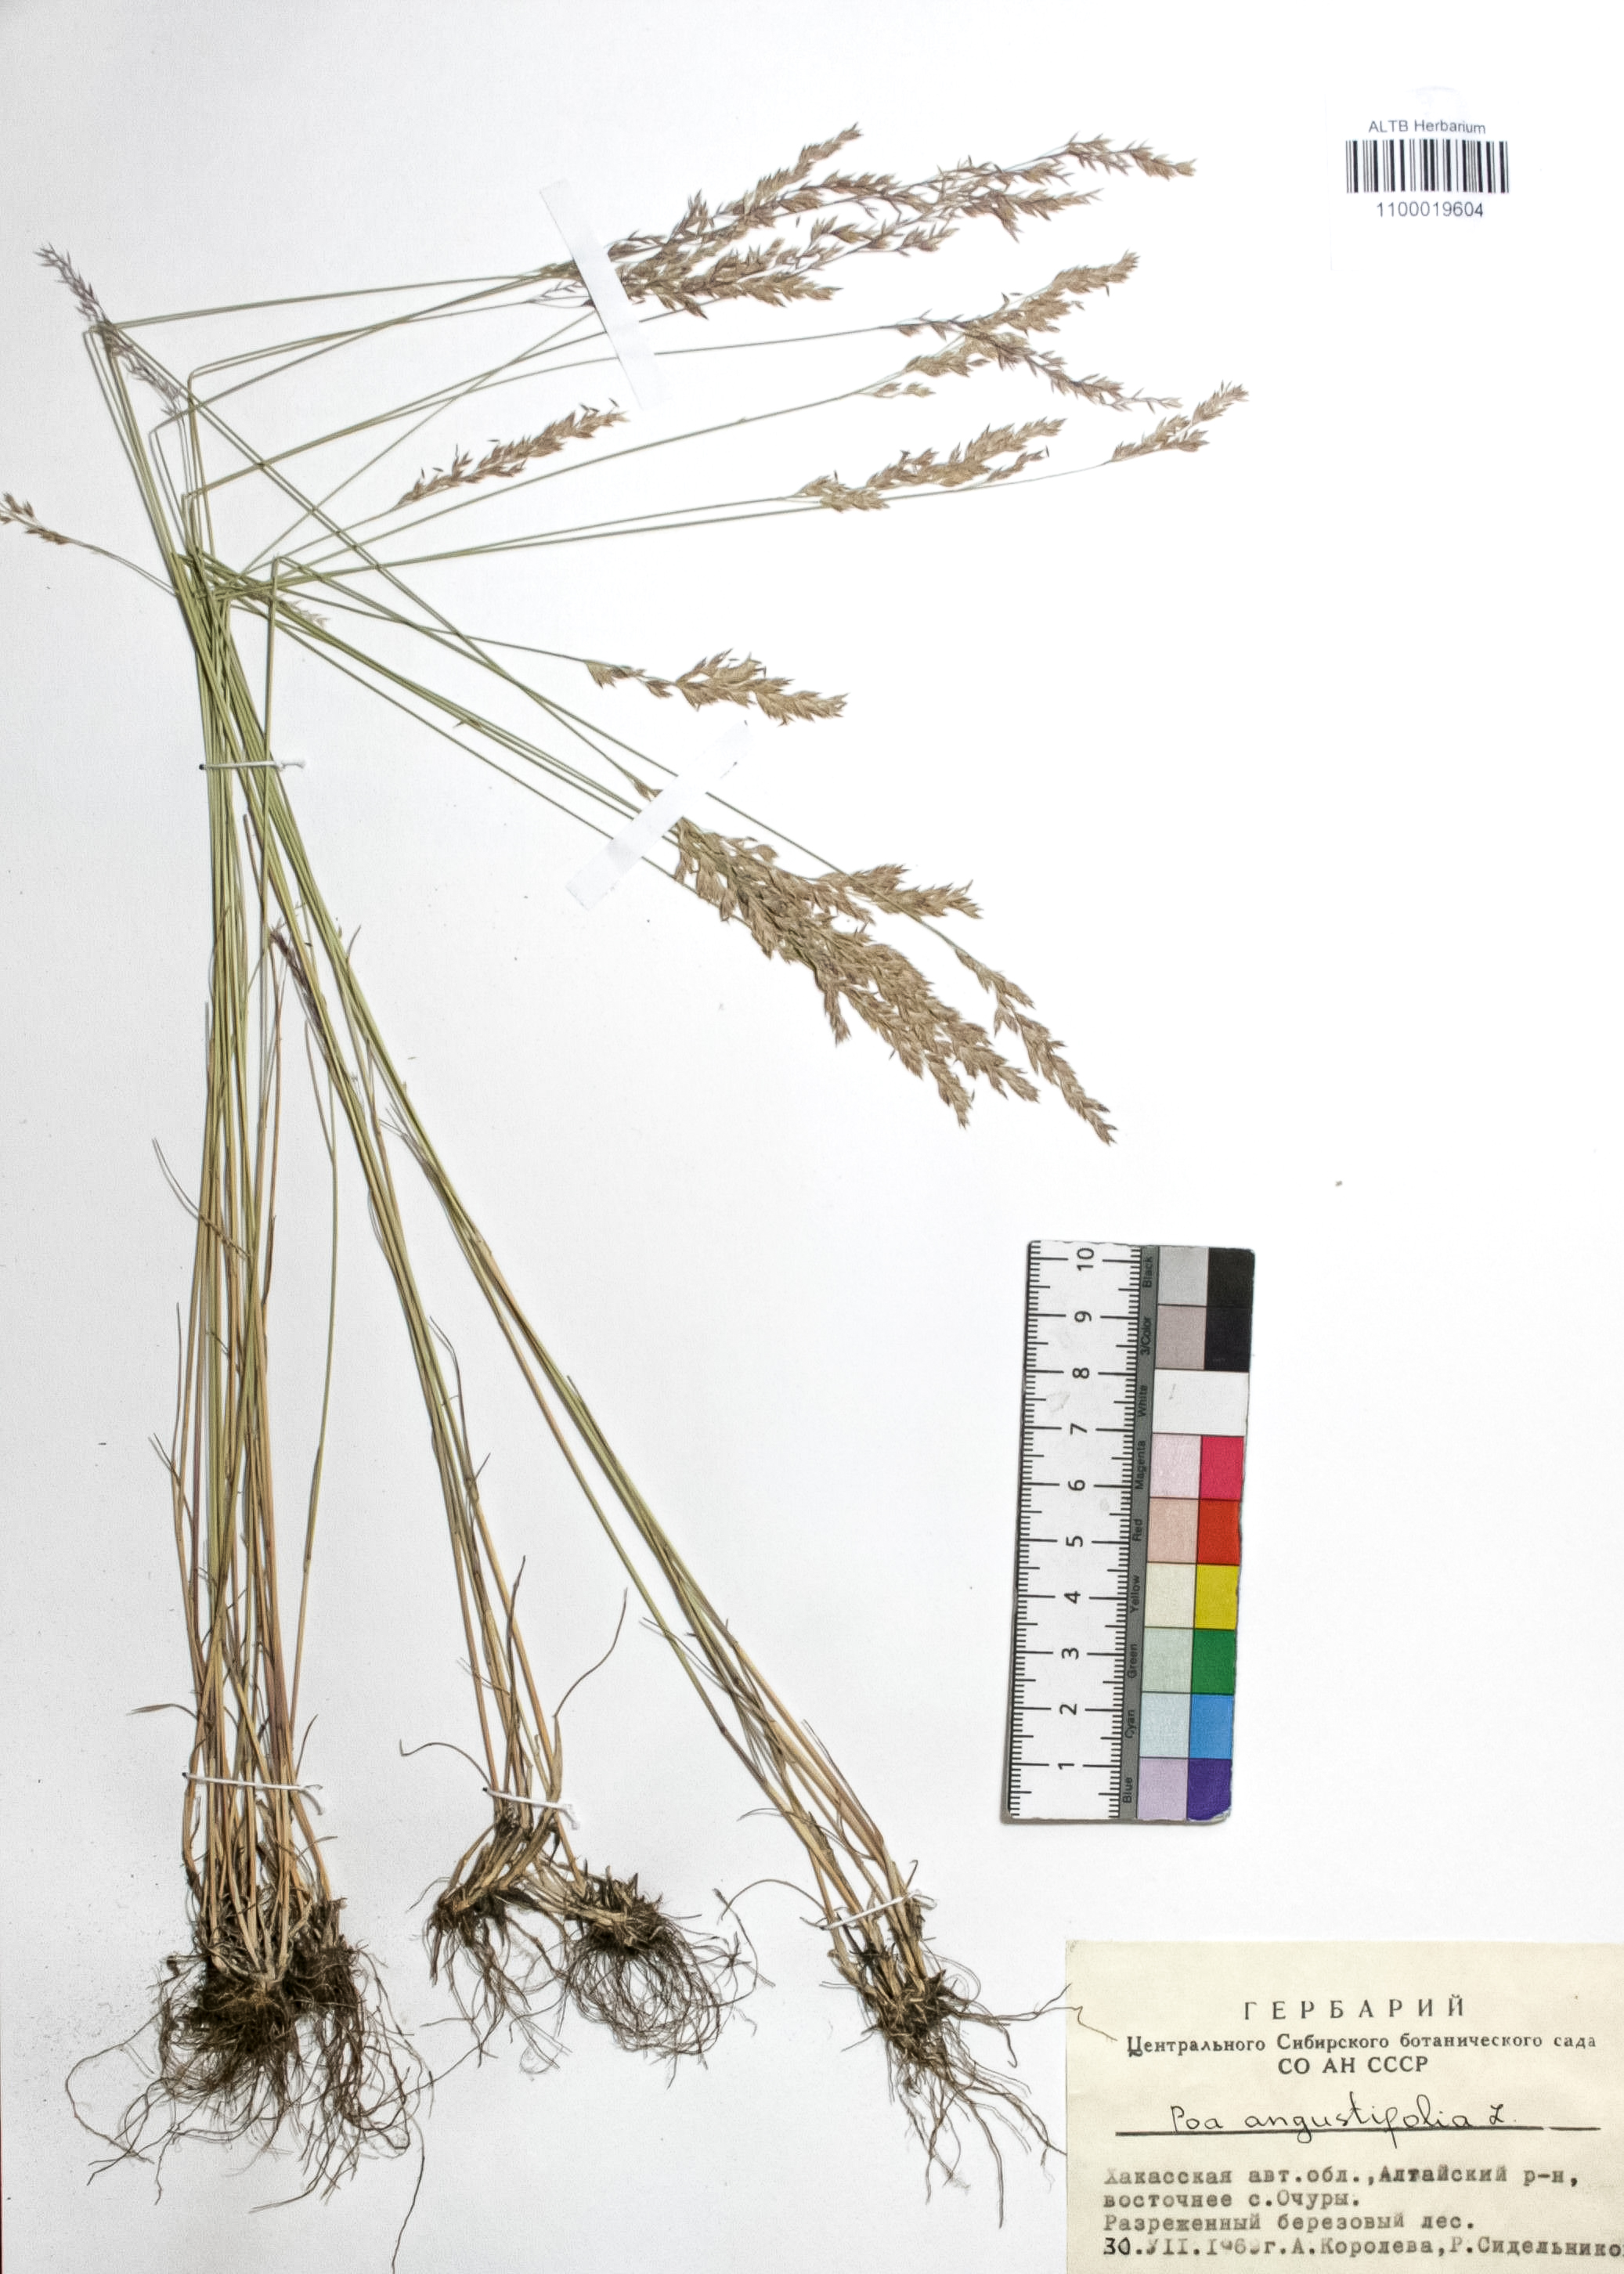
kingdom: Plantae
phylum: Tracheophyta
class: Liliopsida
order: Poales
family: Poaceae
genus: Poa
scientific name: Poa angustifolia
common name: Narrow-leaved meadow-grass
